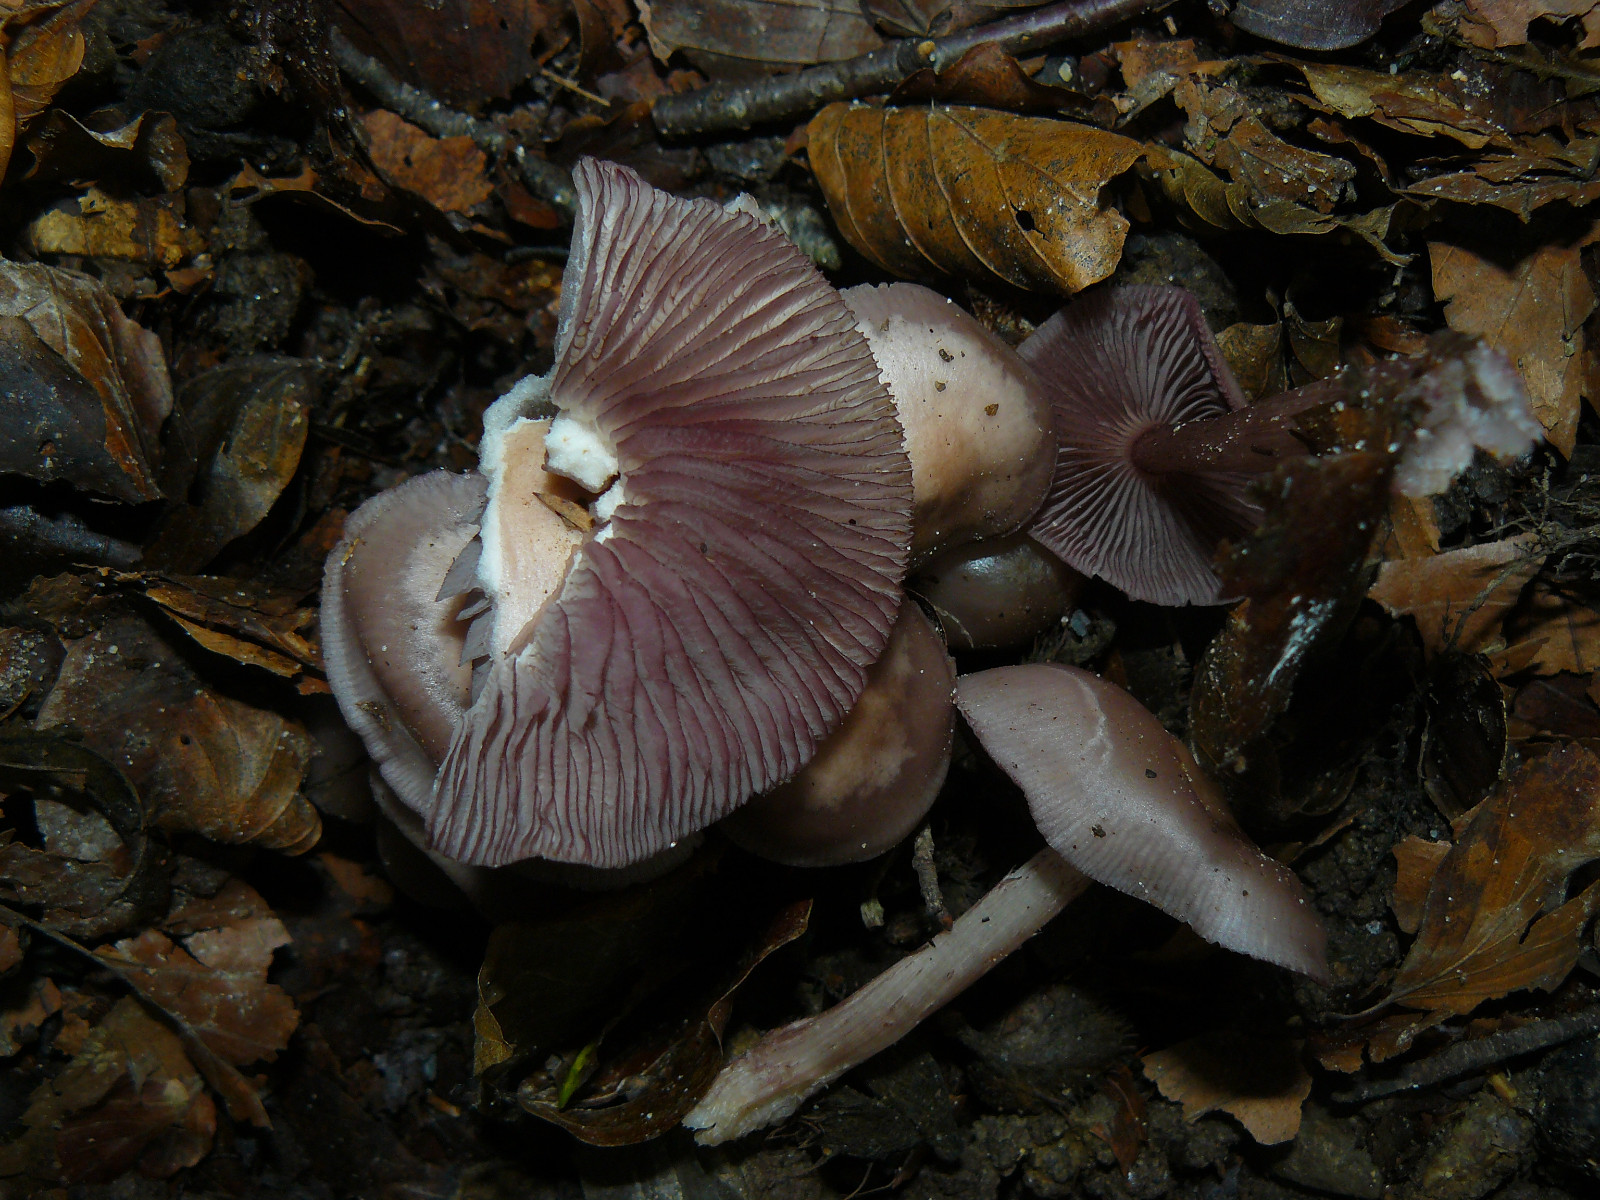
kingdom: Fungi
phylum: Basidiomycota
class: Agaricomycetes
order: Agaricales
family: Mycenaceae
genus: Mycena
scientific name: Mycena pelianthina
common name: mørkbladet huesvamp
